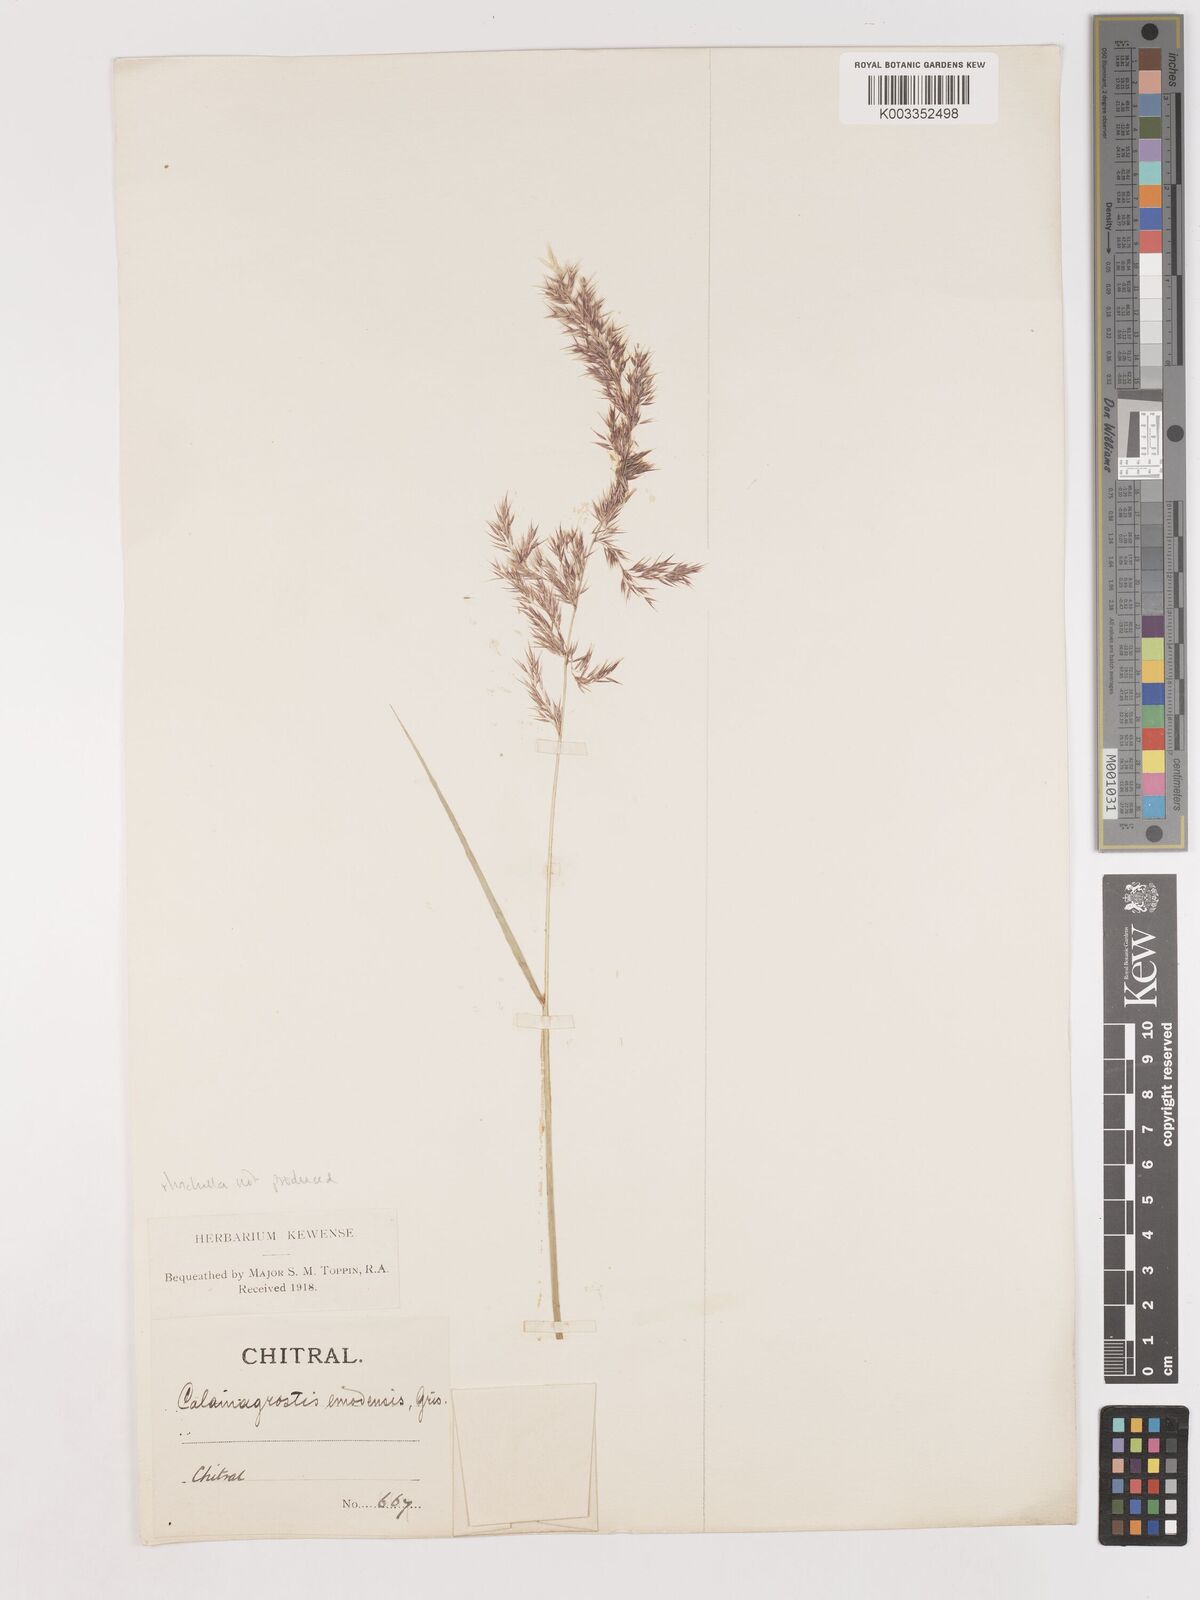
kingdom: Plantae
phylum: Tracheophyta
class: Liliopsida
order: Poales
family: Poaceae
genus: Calamagrostis
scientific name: Calamagrostis epigejos
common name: Wood small-reed
